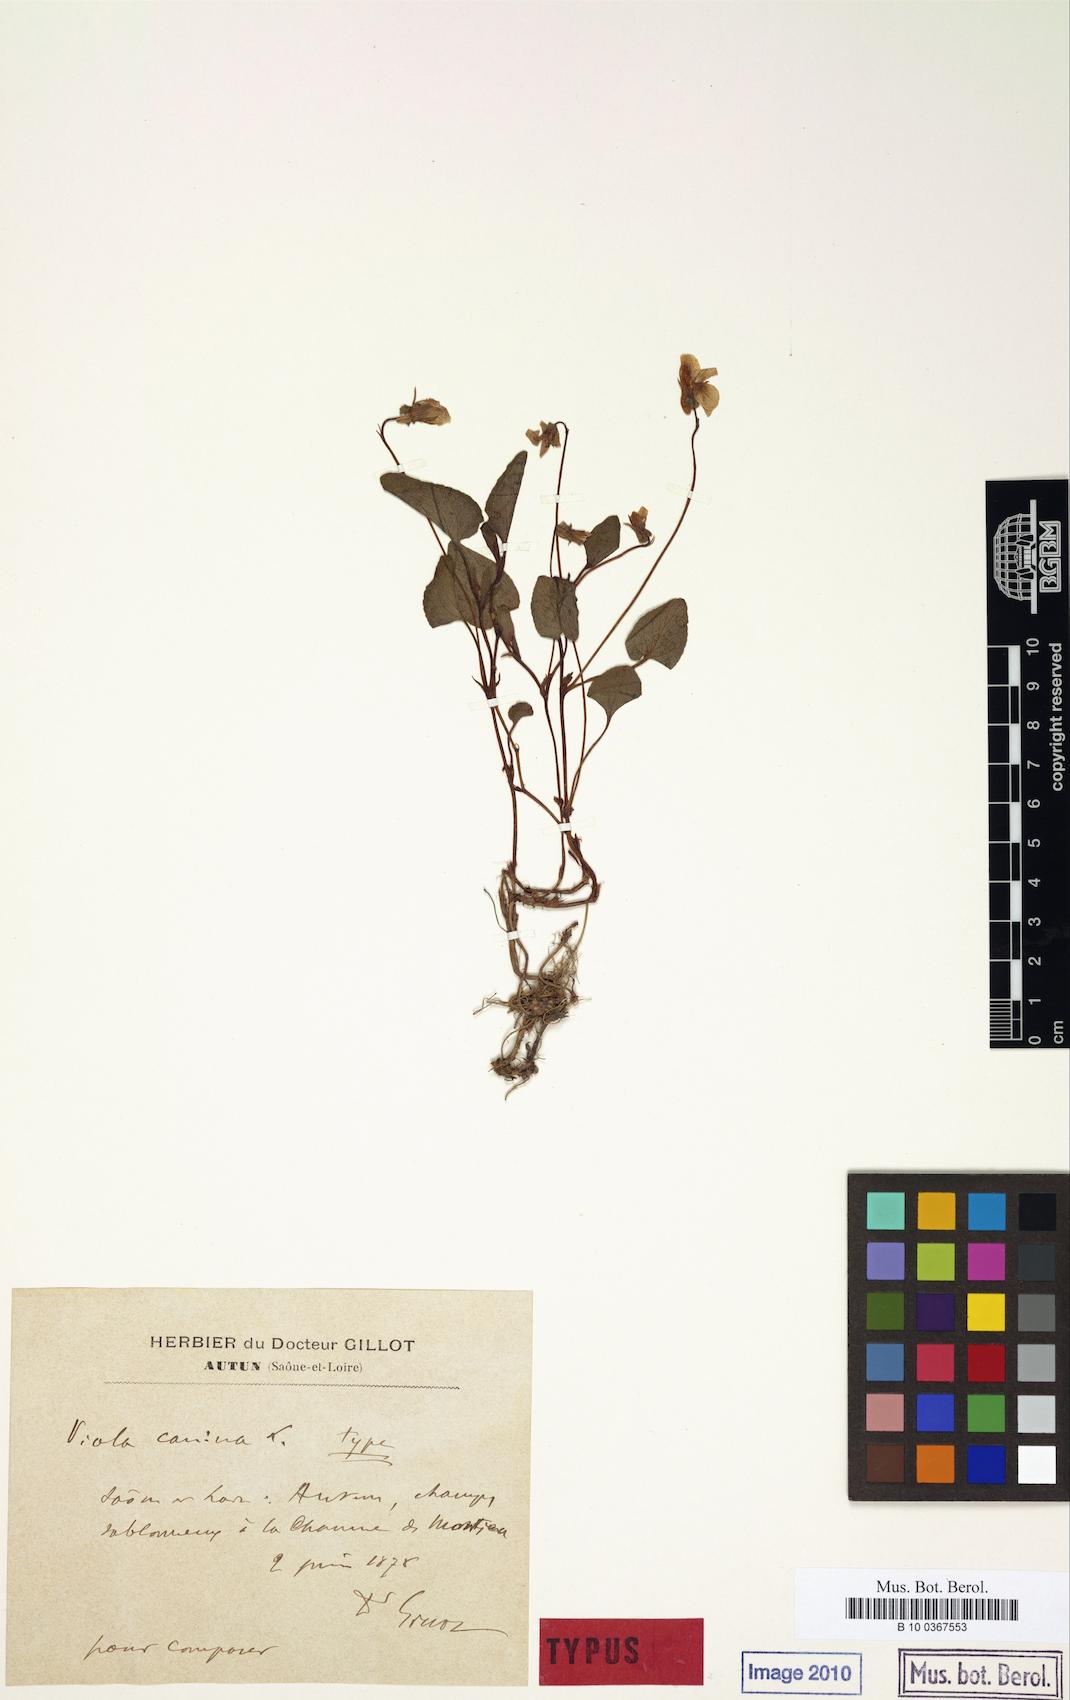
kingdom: Plantae
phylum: Tracheophyta
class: Magnoliopsida
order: Malpighiales
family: Violaceae
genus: Viola
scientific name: Viola canina
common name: Heath dog-violet
